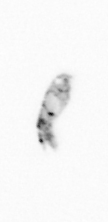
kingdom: Animalia
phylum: Arthropoda
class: Copepoda
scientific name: Copepoda
